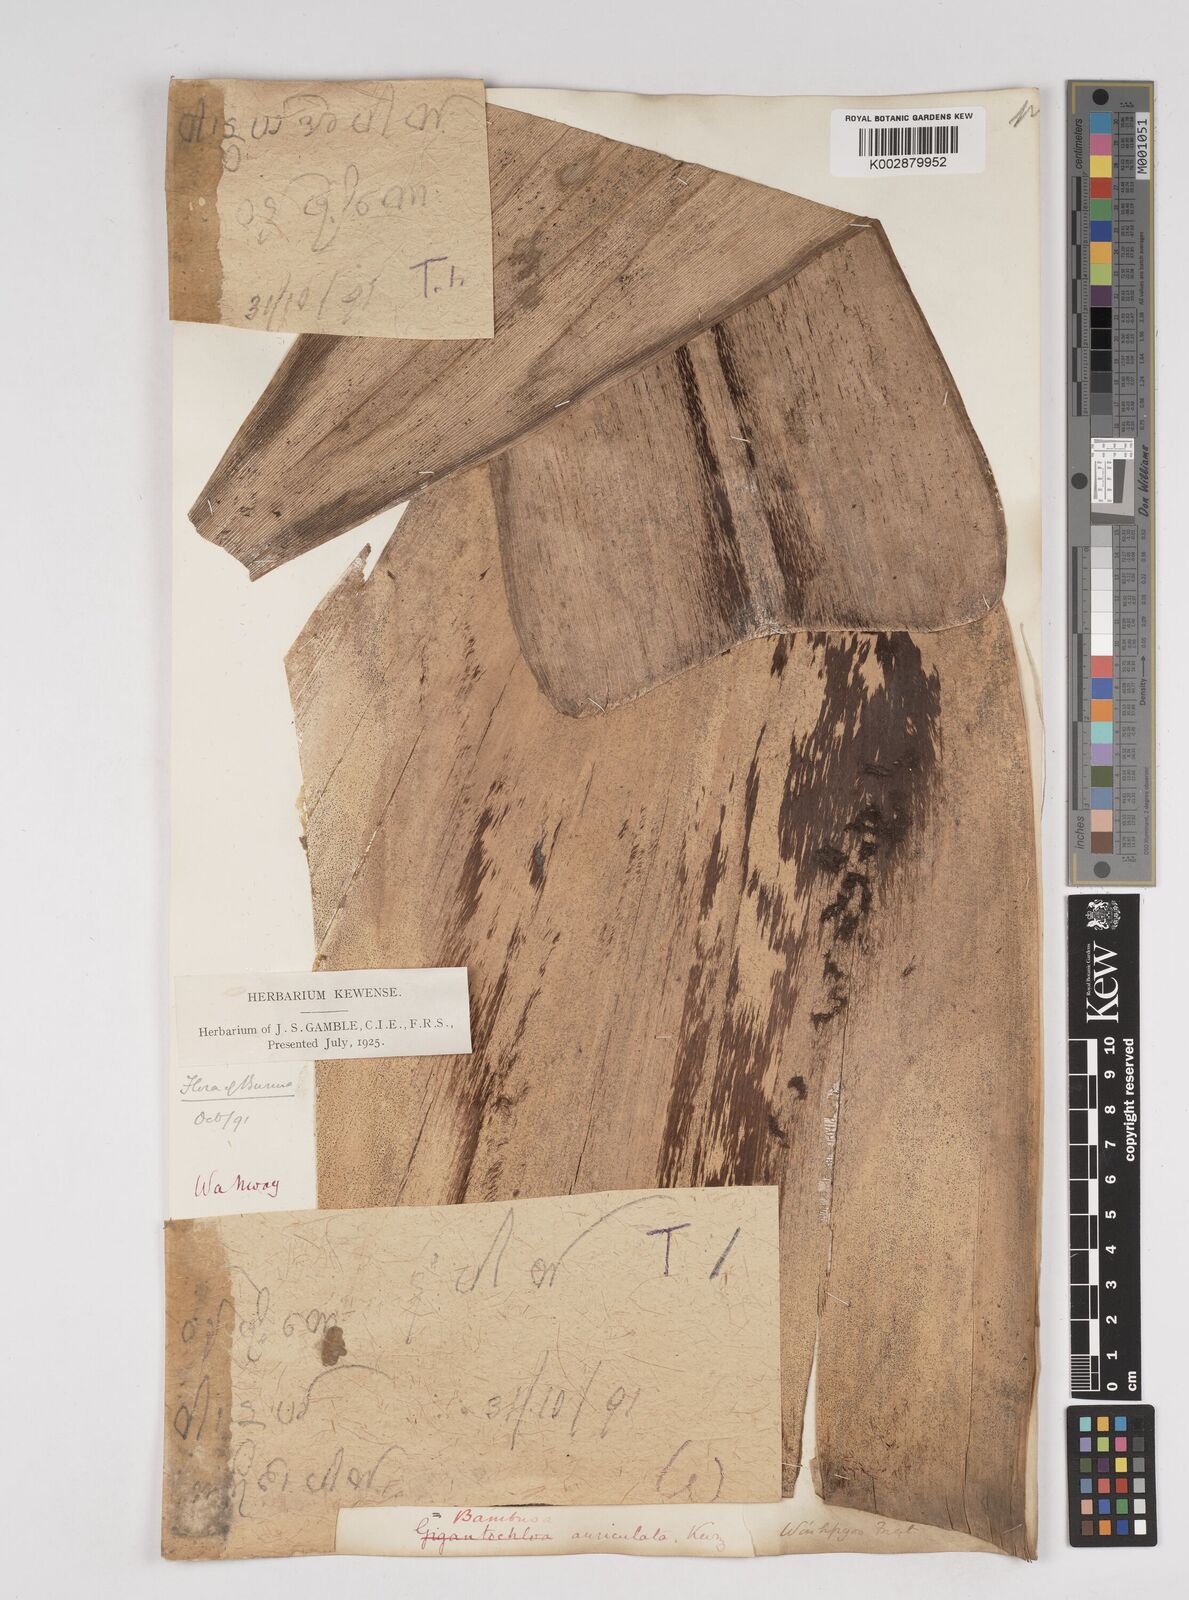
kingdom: Plantae
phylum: Tracheophyta
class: Liliopsida
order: Poales
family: Poaceae
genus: Gigantochloa
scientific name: Gigantochloa nigrociliata
